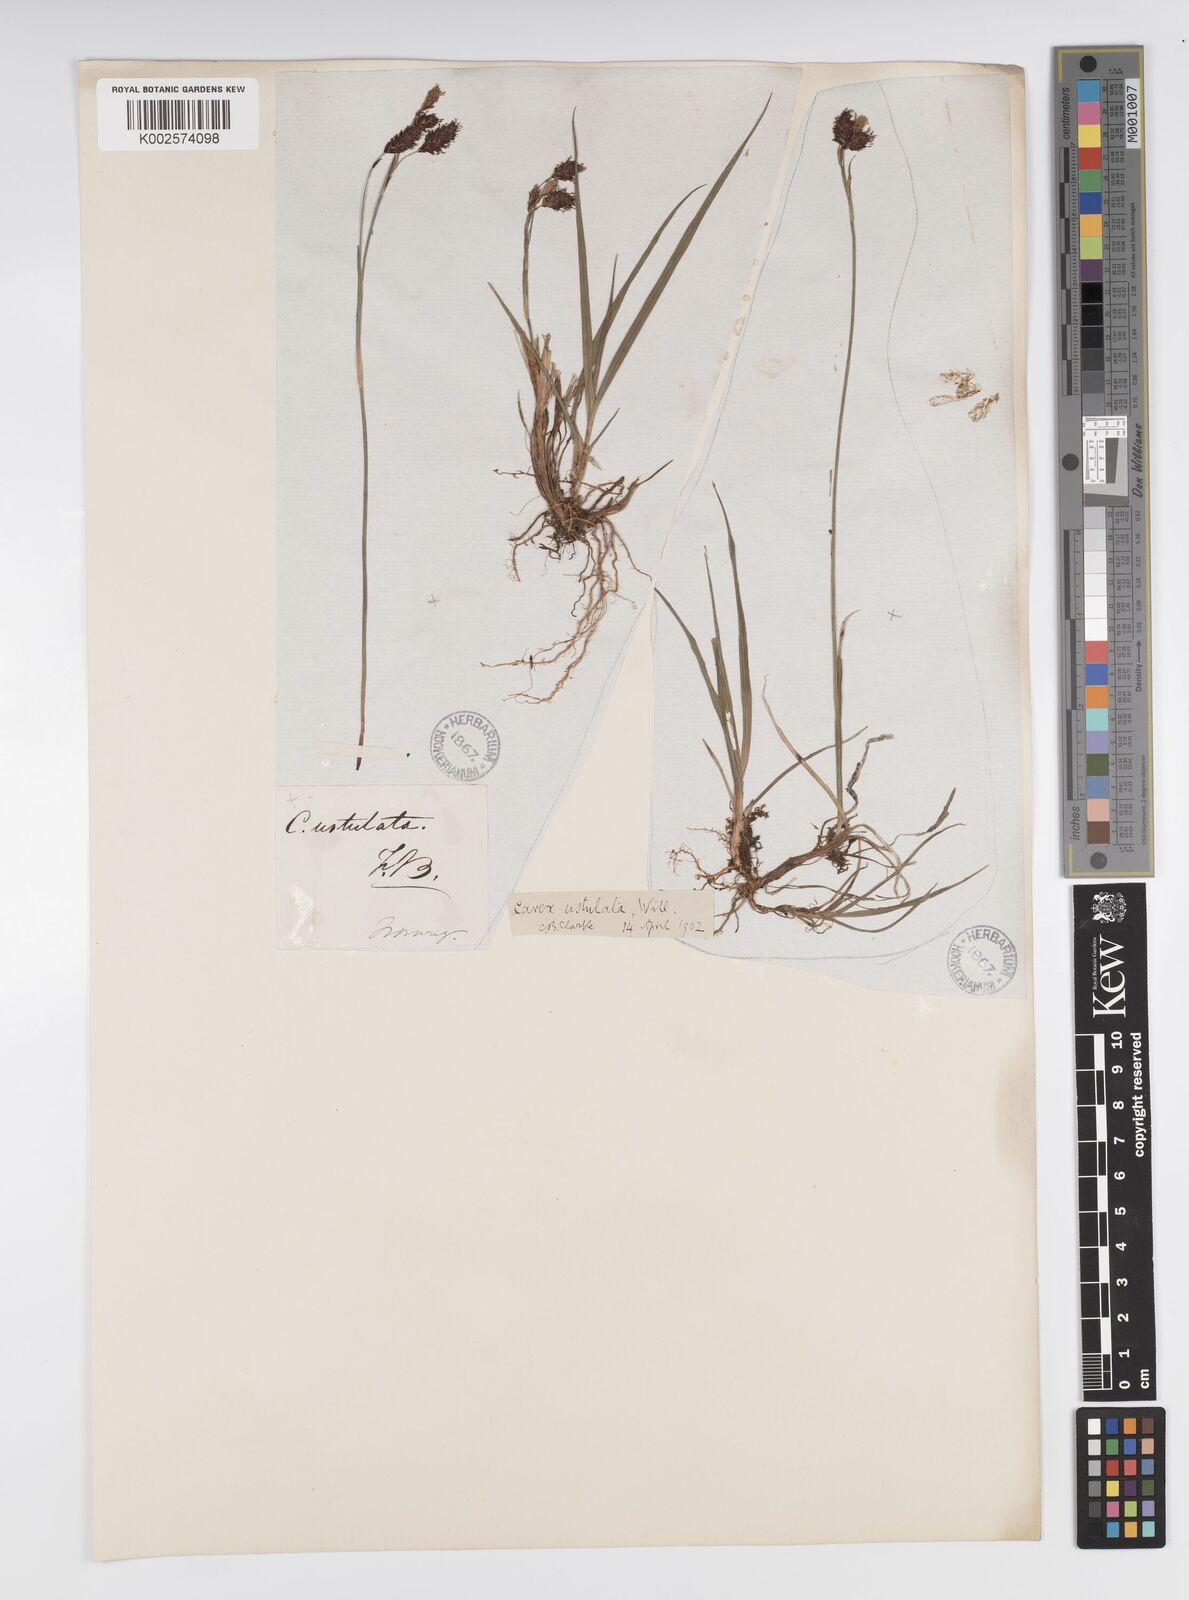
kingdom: Plantae
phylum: Tracheophyta
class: Liliopsida
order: Poales
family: Cyperaceae
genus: Carex
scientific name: Carex atrofusca
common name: Scorched alpine-sedge
